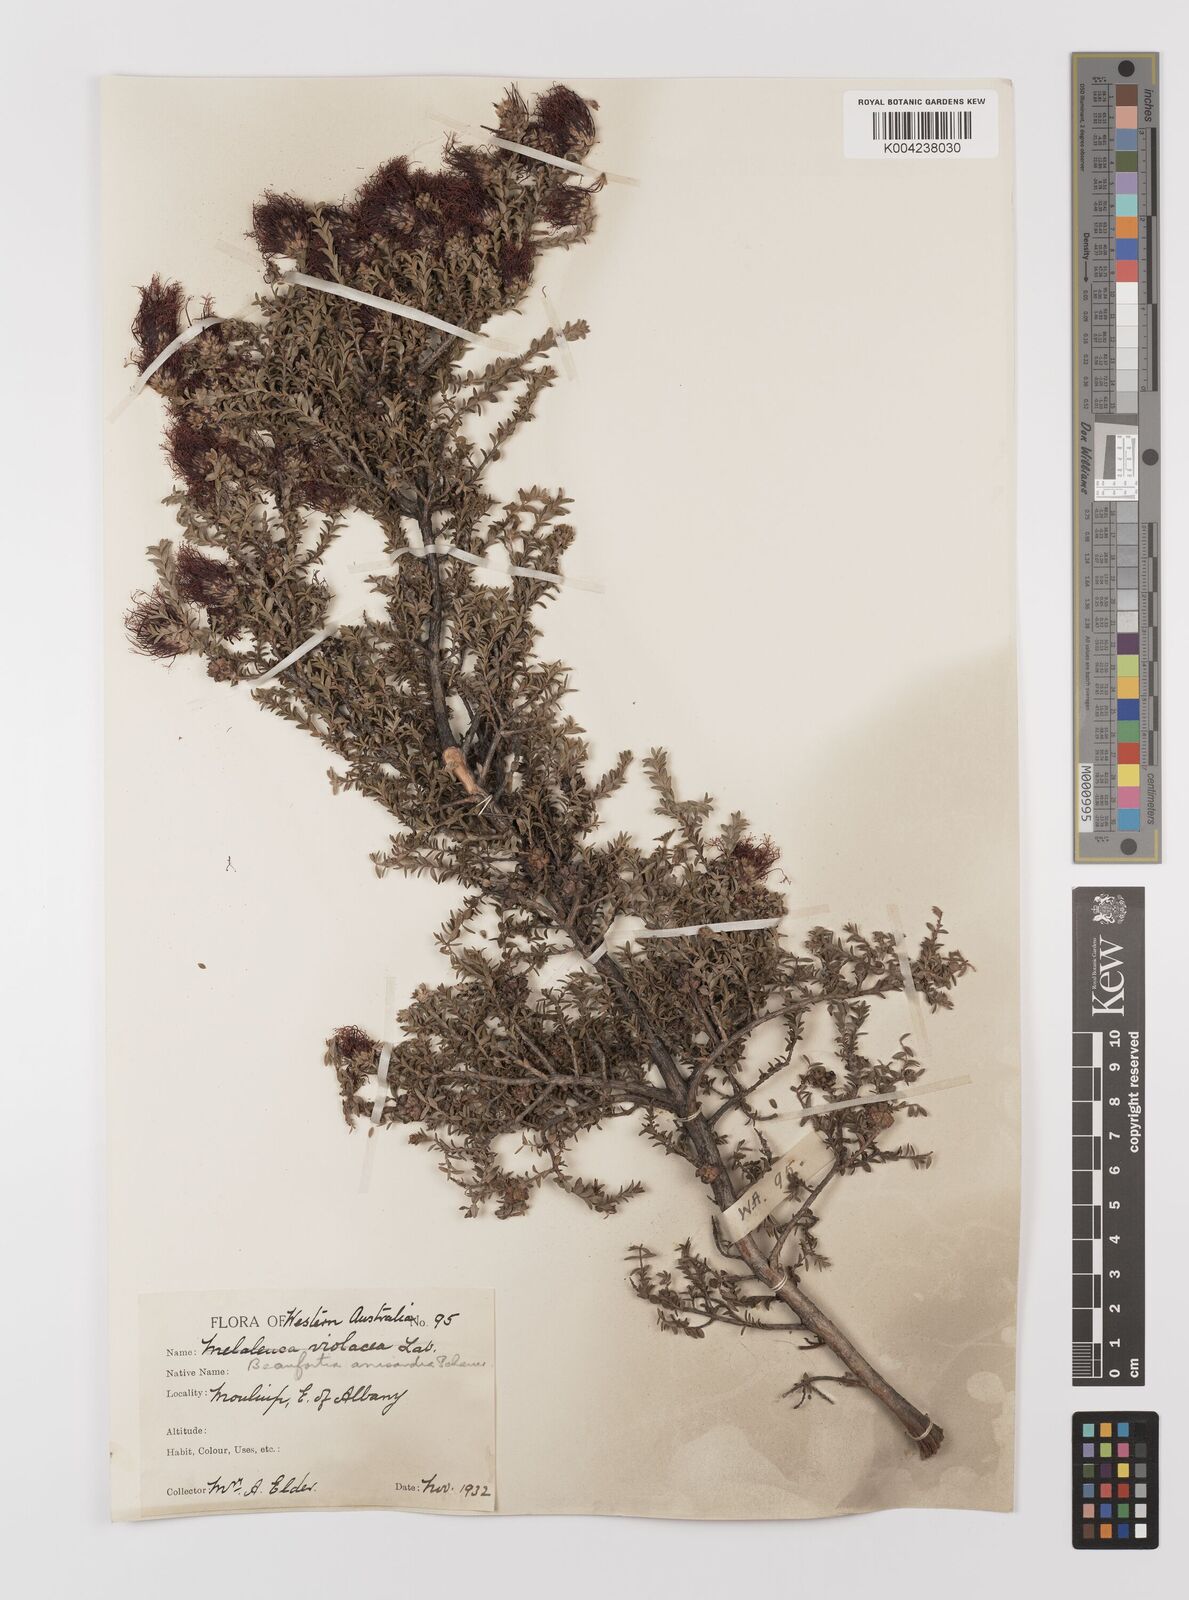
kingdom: Plantae
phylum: Tracheophyta
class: Magnoliopsida
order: Myrtales
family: Myrtaceae
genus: Melaleuca
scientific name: Melaleuca anisandra
